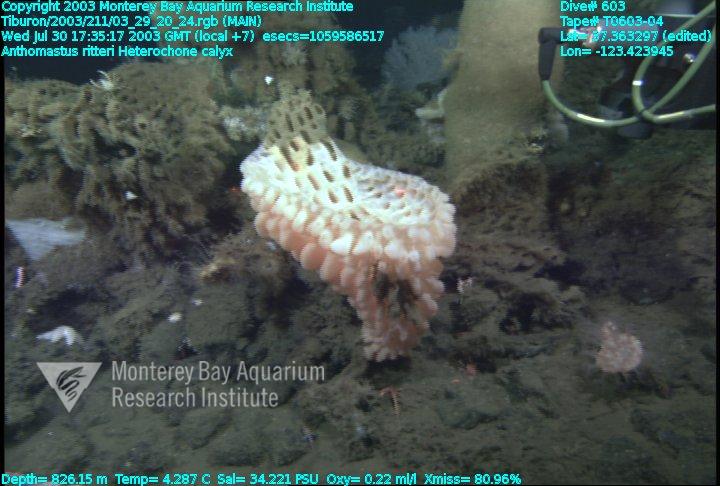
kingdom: Animalia
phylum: Porifera
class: Hexactinellida
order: Sceptrulophora
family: Aphrocallistidae
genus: Heterochone
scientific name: Heterochone calyx
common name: Fingered goblet glass sponge
